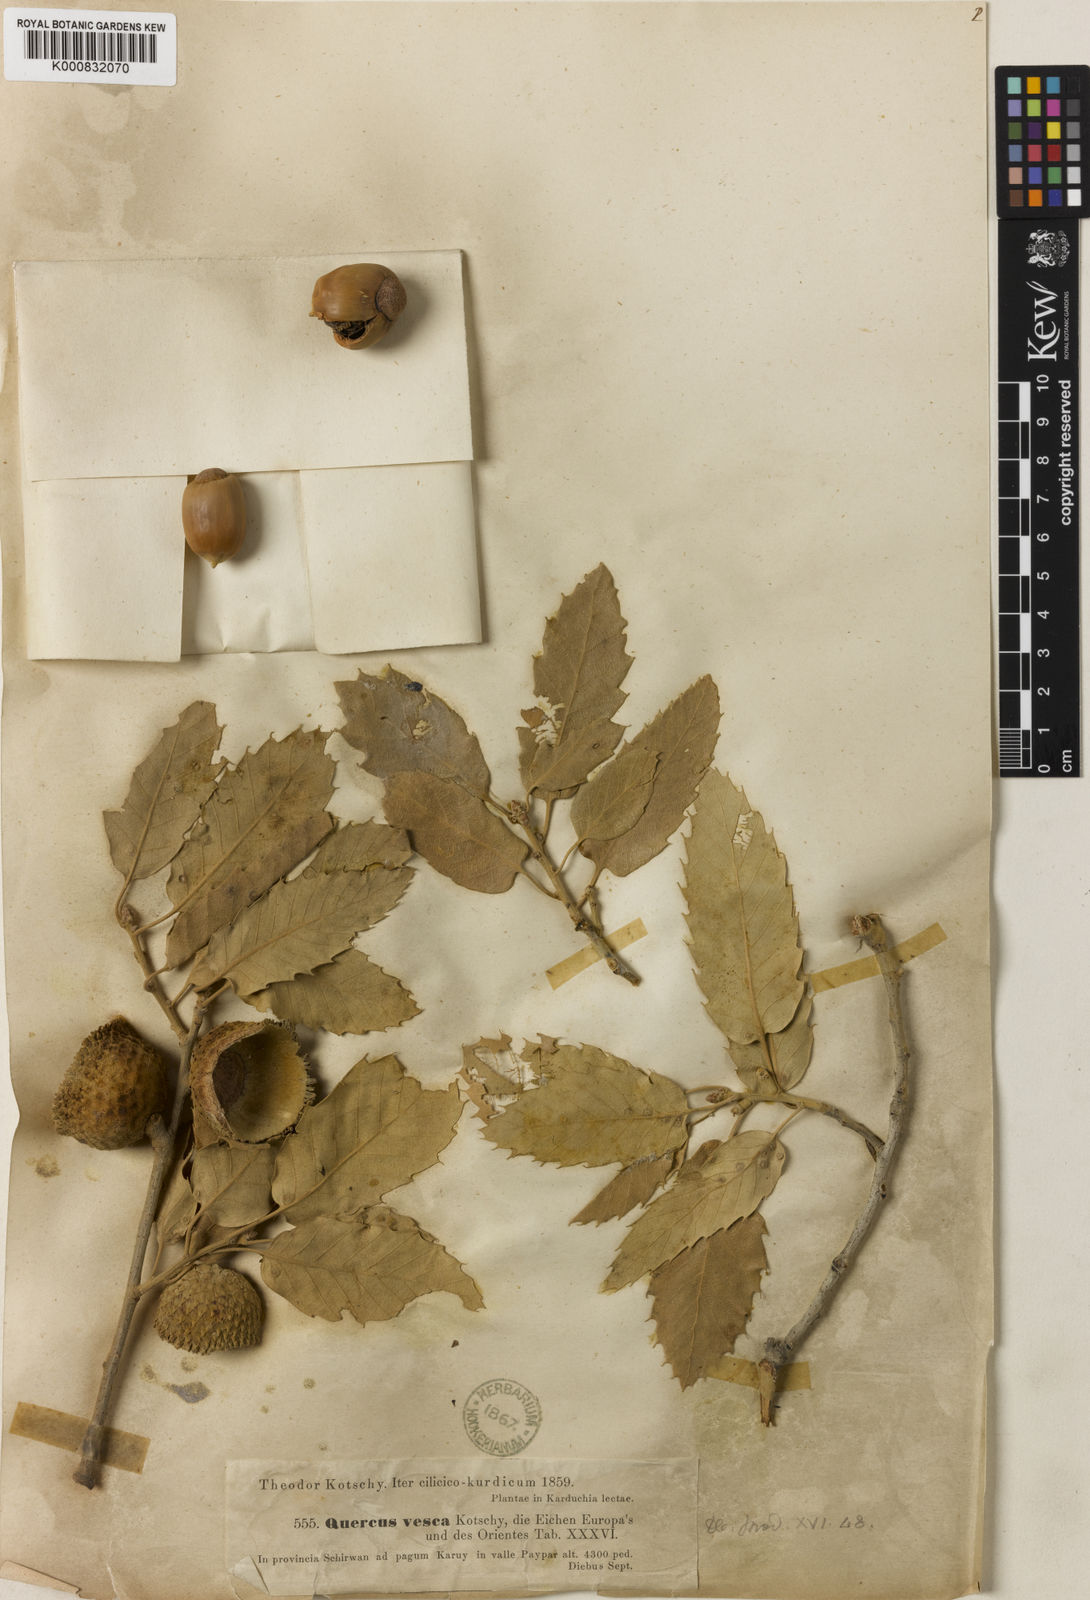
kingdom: Plantae
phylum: Tracheophyta
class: Magnoliopsida
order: Fagales
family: Fagaceae
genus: Quercus
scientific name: Quercus brantii
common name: Brant oak
